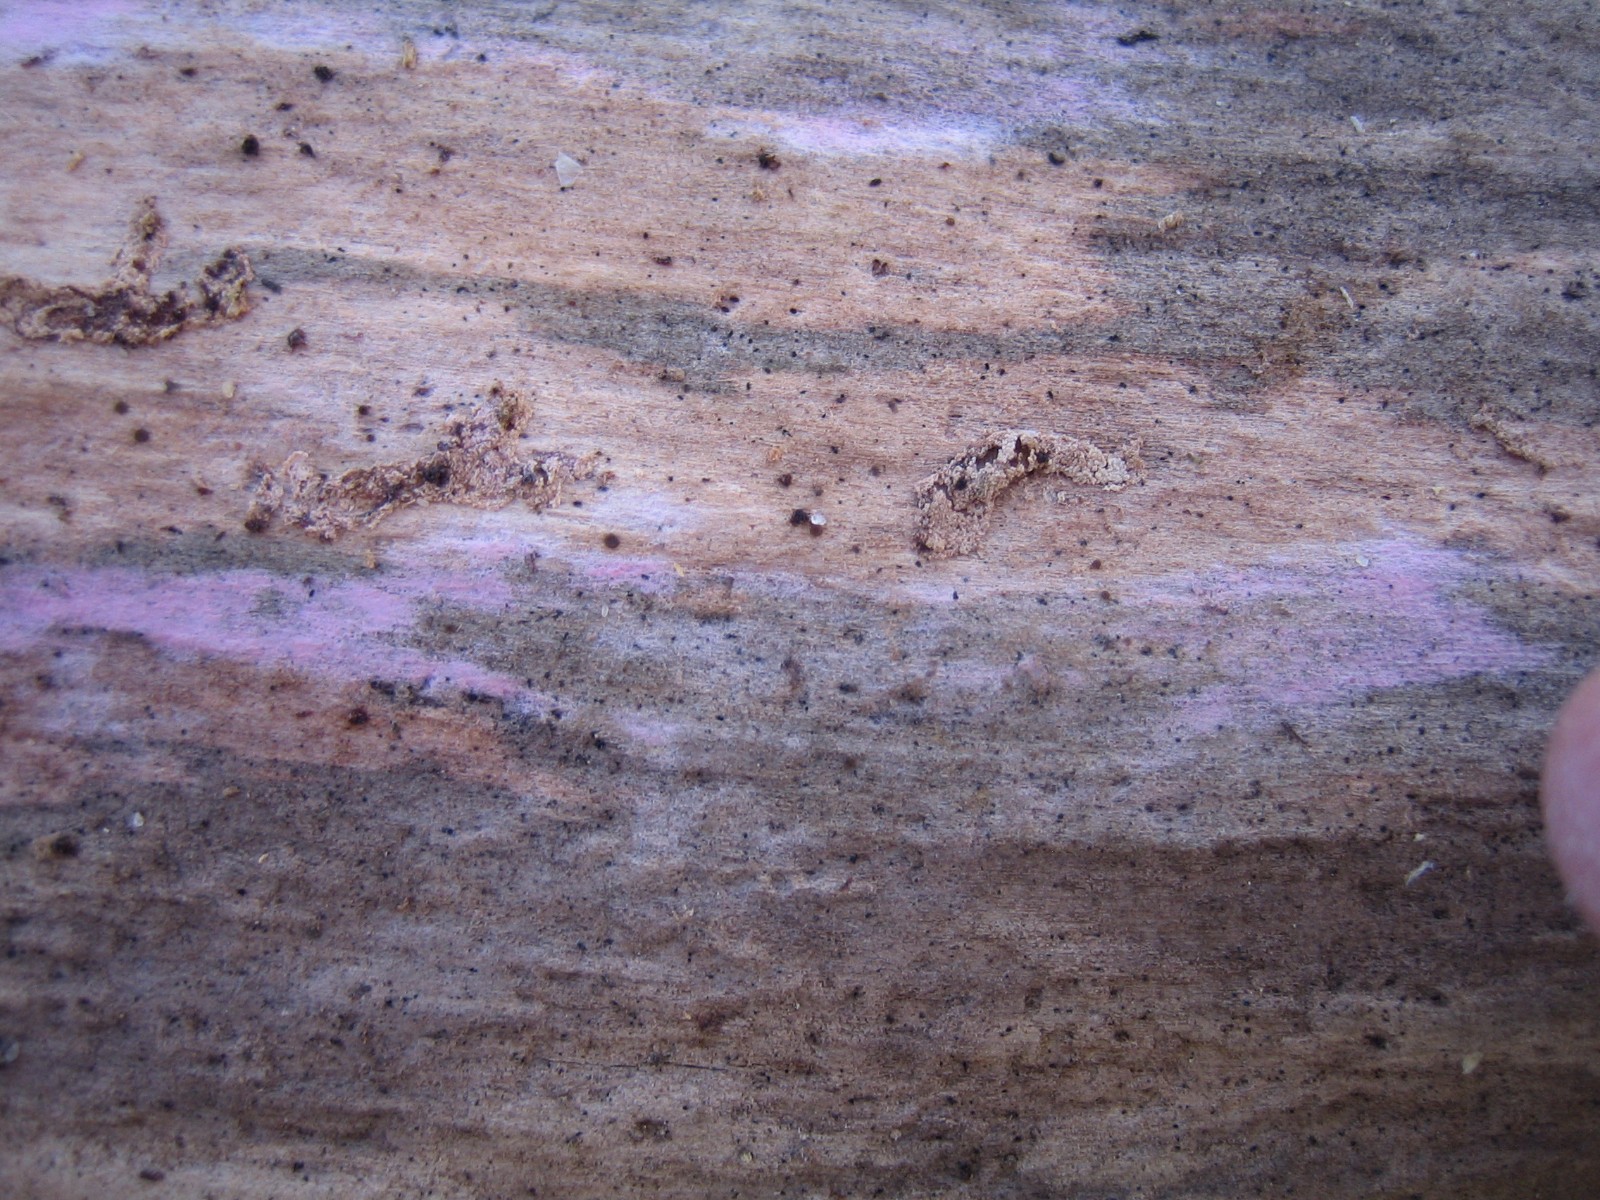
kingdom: Fungi
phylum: Basidiomycota
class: Agaricomycetes
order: Cantharellales
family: Tulasnellaceae
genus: Tulasnella
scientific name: Tulasnella violea
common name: violet ballonhinde
